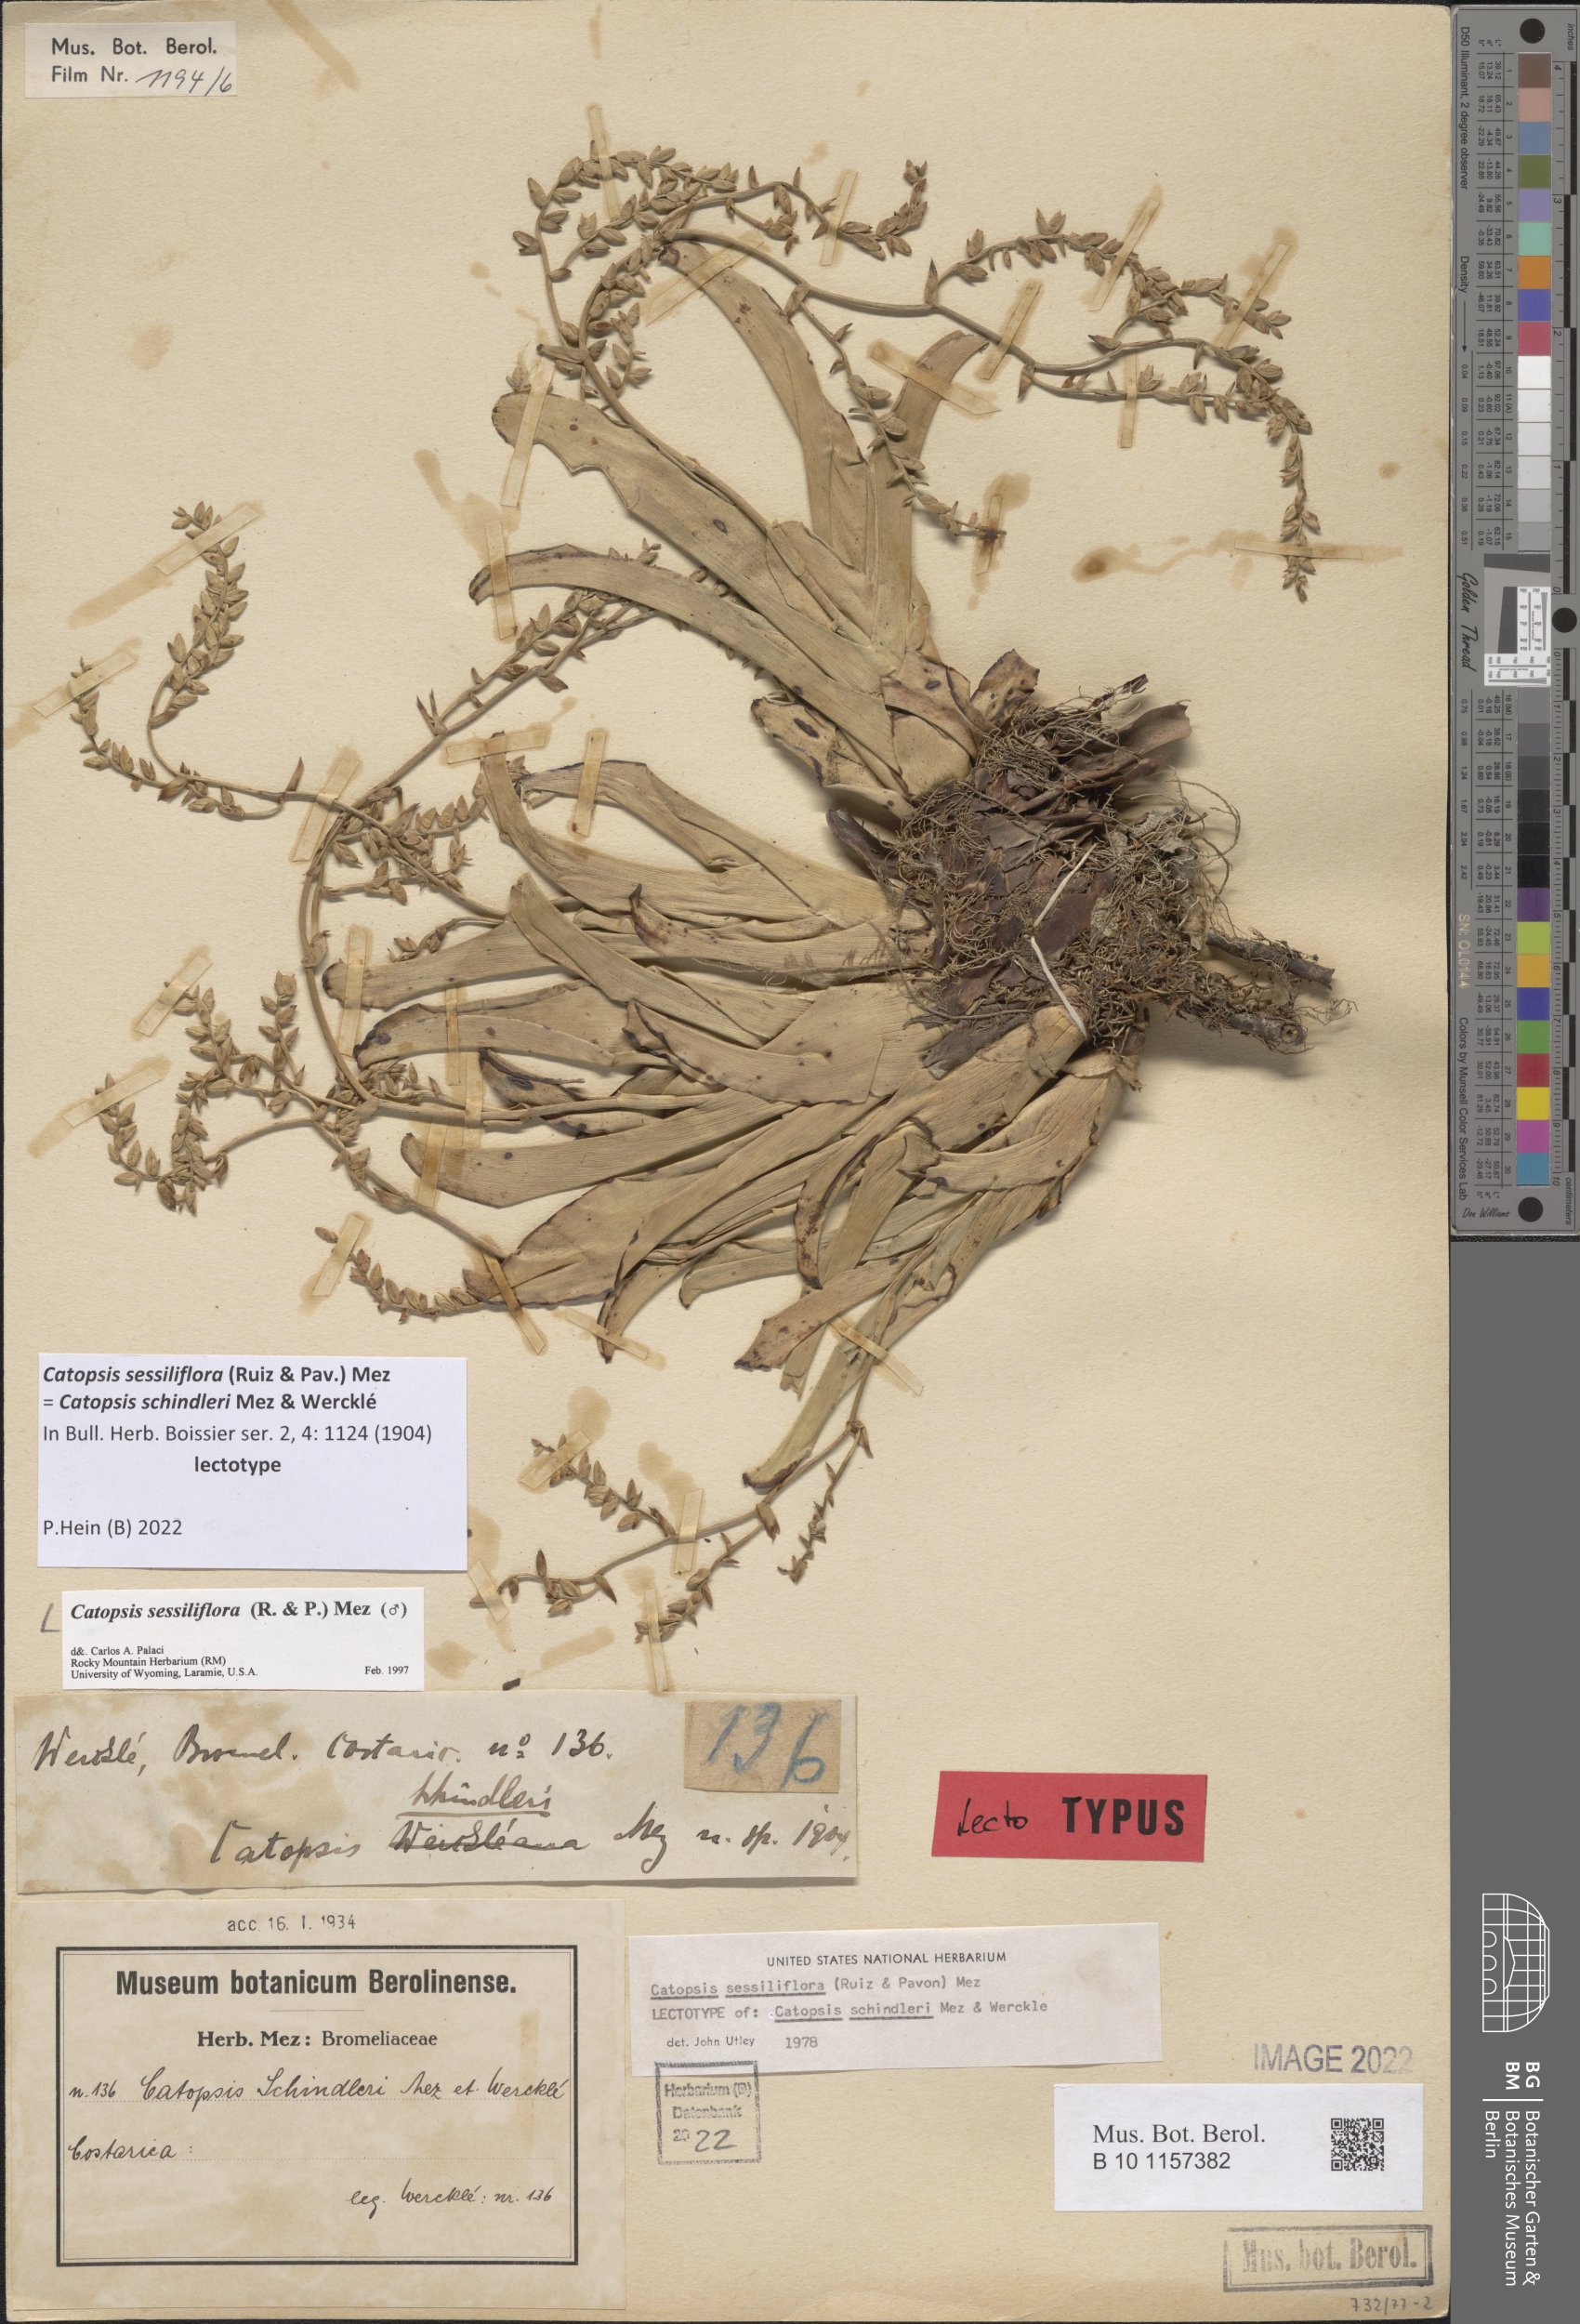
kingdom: Plantae
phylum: Tracheophyta
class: Liliopsida
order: Poales
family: Bromeliaceae
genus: Catopsis
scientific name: Catopsis sessiliflora
